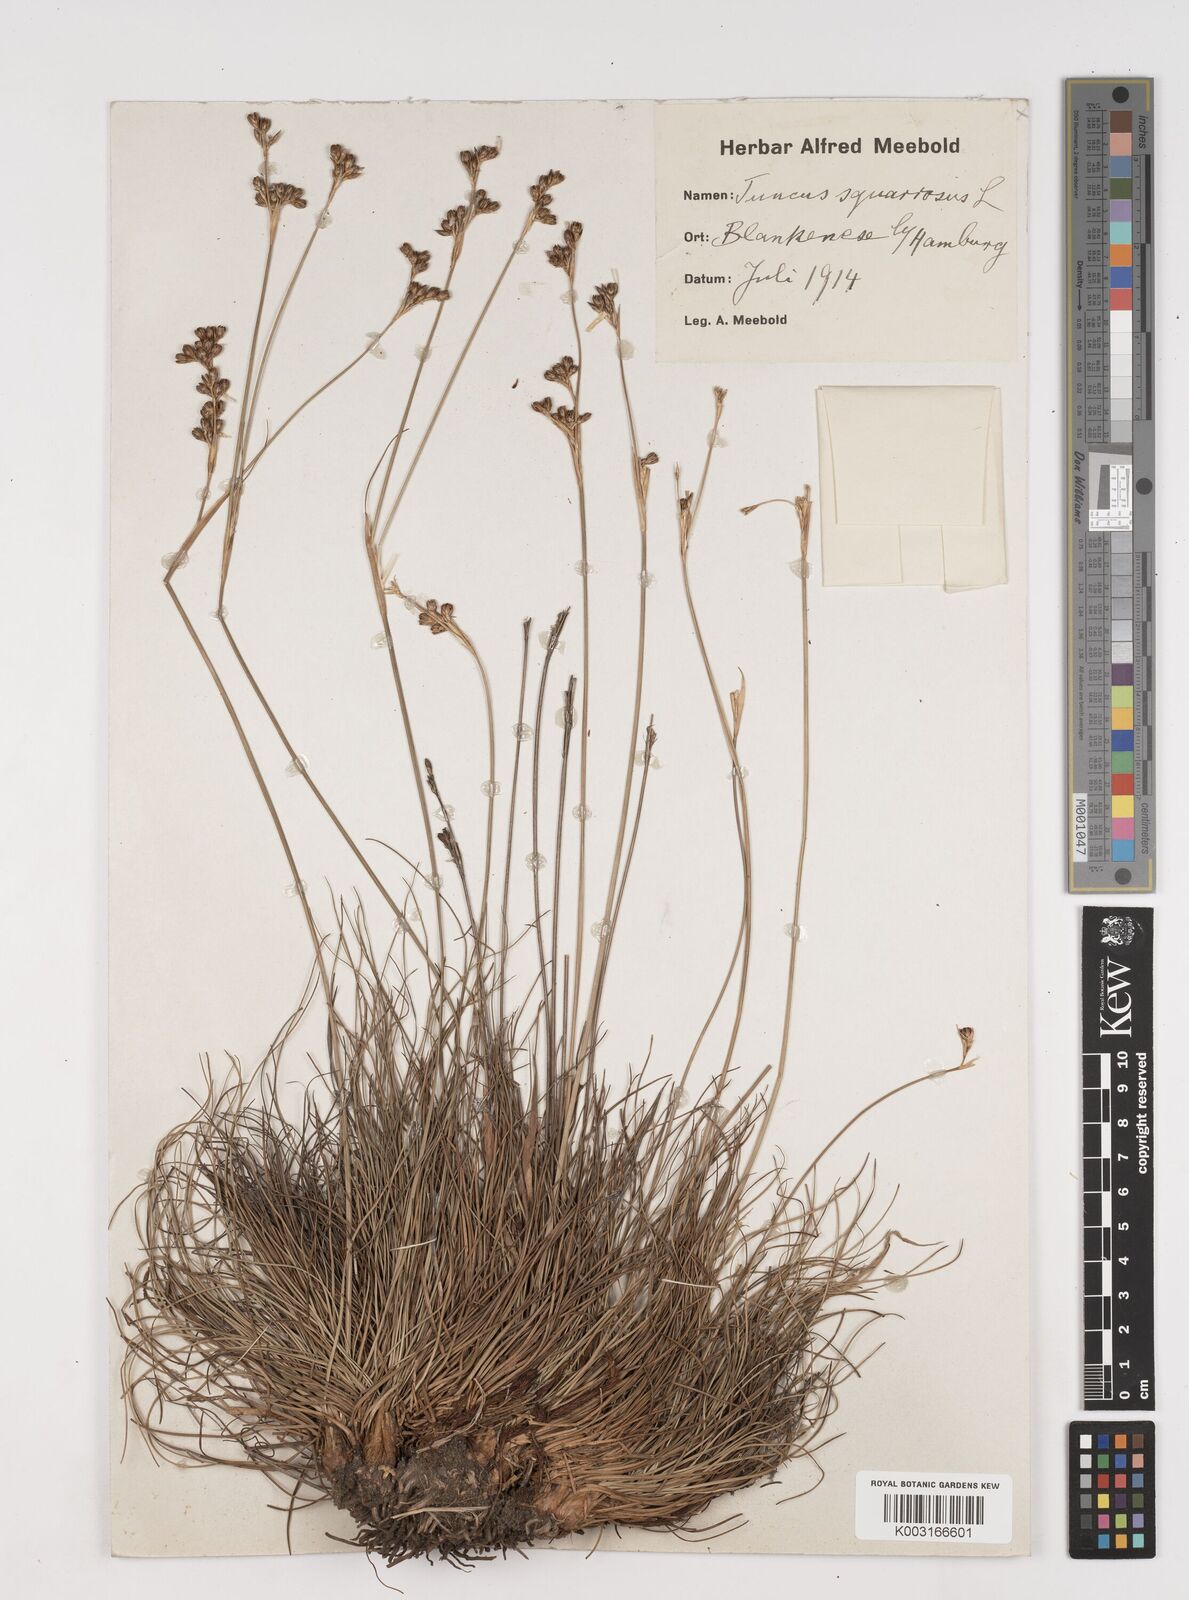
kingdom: Plantae
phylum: Tracheophyta
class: Liliopsida
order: Poales
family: Juncaceae
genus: Juncus
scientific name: Juncus squarrosus
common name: Heath rush
